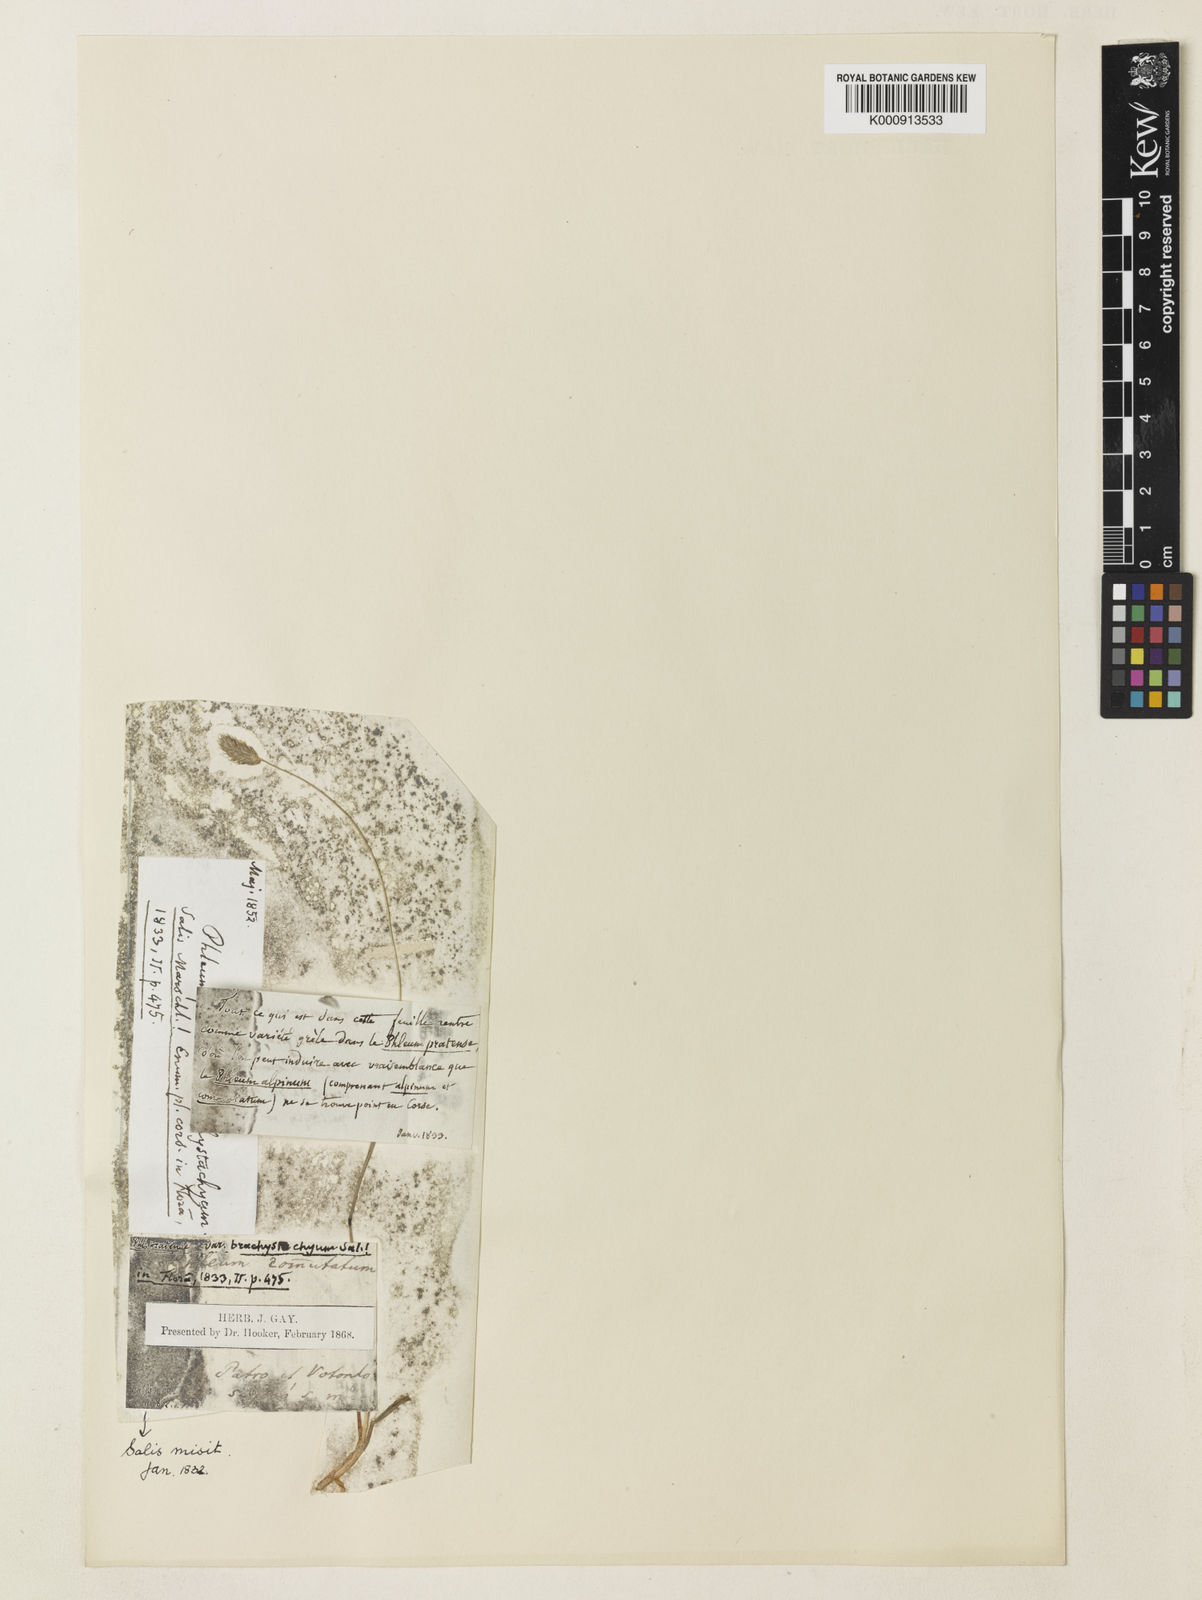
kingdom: Plantae
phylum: Tracheophyta
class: Liliopsida
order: Poales
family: Poaceae
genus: Phleum
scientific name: Phleum pratense
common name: Timothy grass
